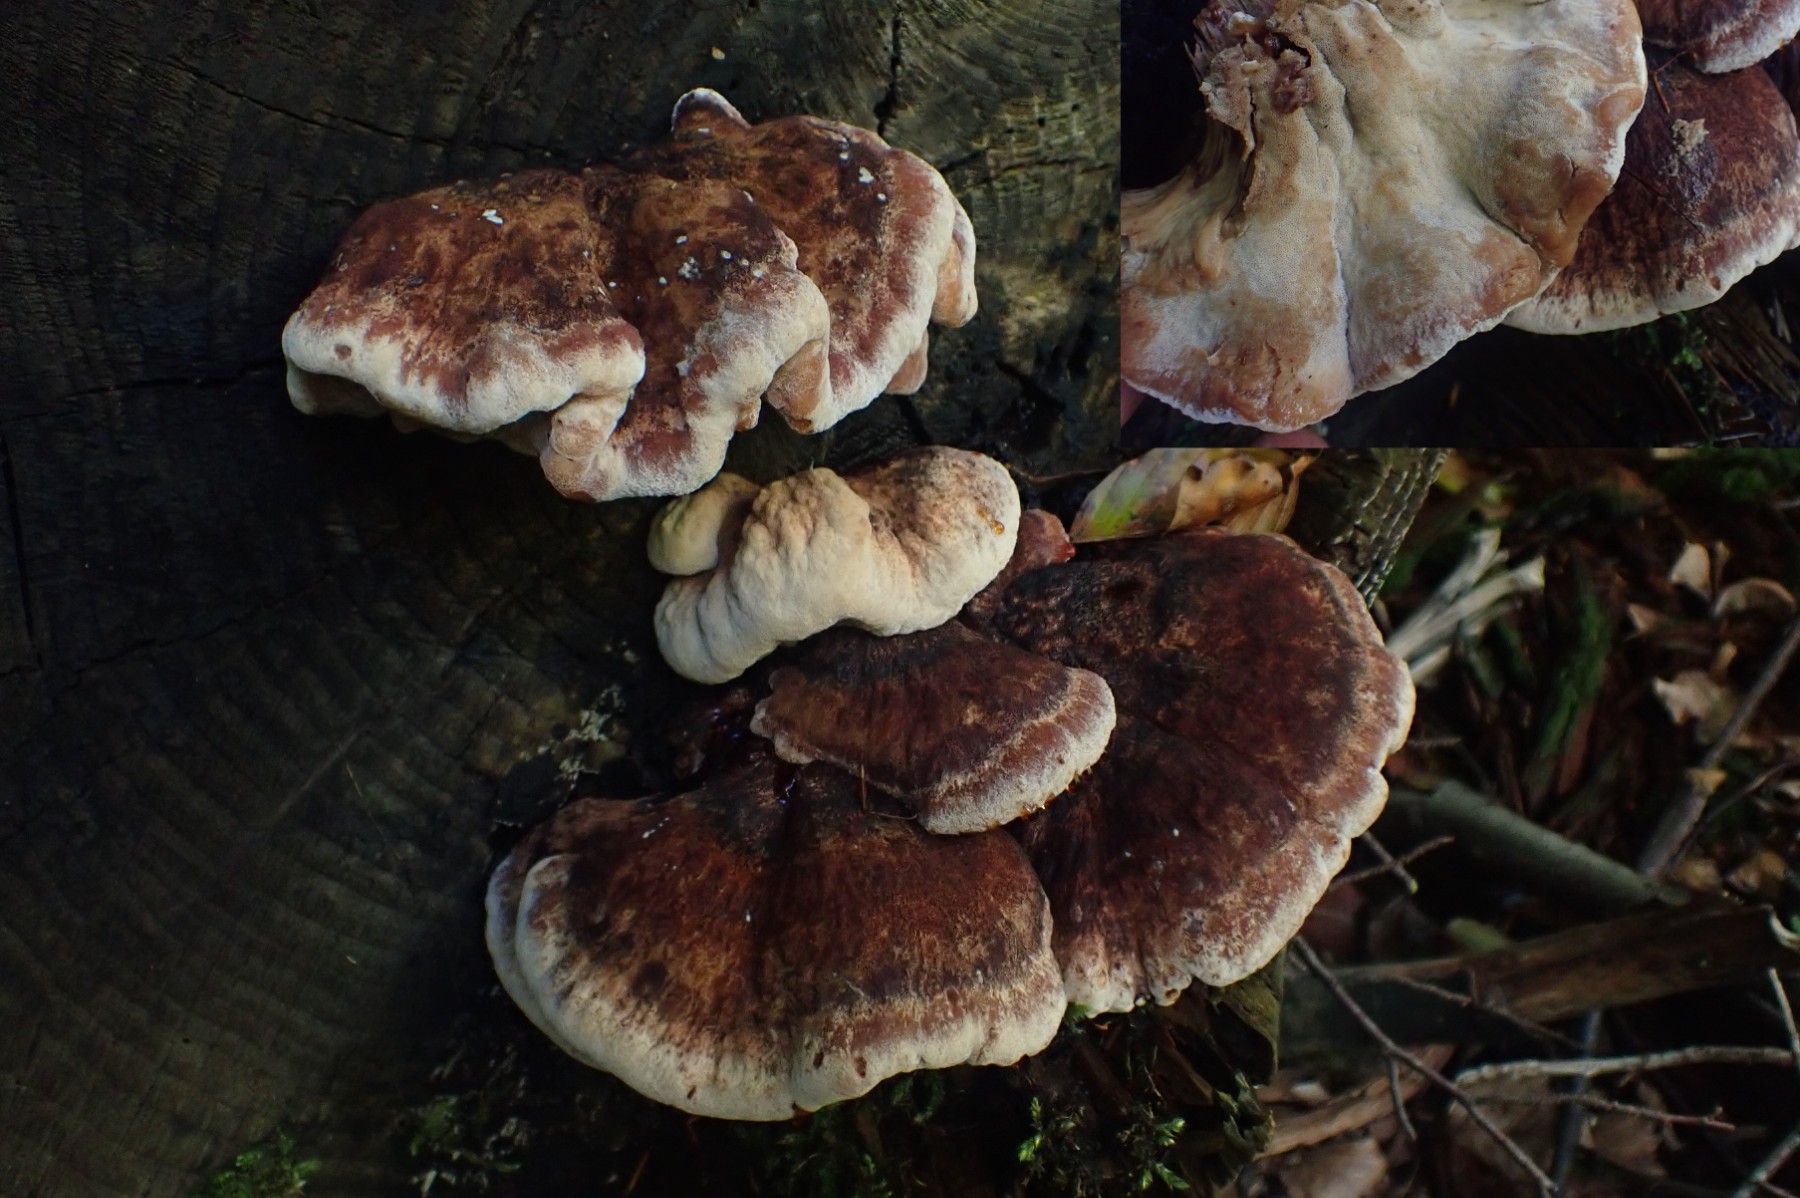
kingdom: Fungi
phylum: Basidiomycota
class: Agaricomycetes
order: Polyporales
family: Ischnodermataceae
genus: Ischnoderma
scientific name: Ischnoderma benzoinum
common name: gran-tjæreporesvamp
